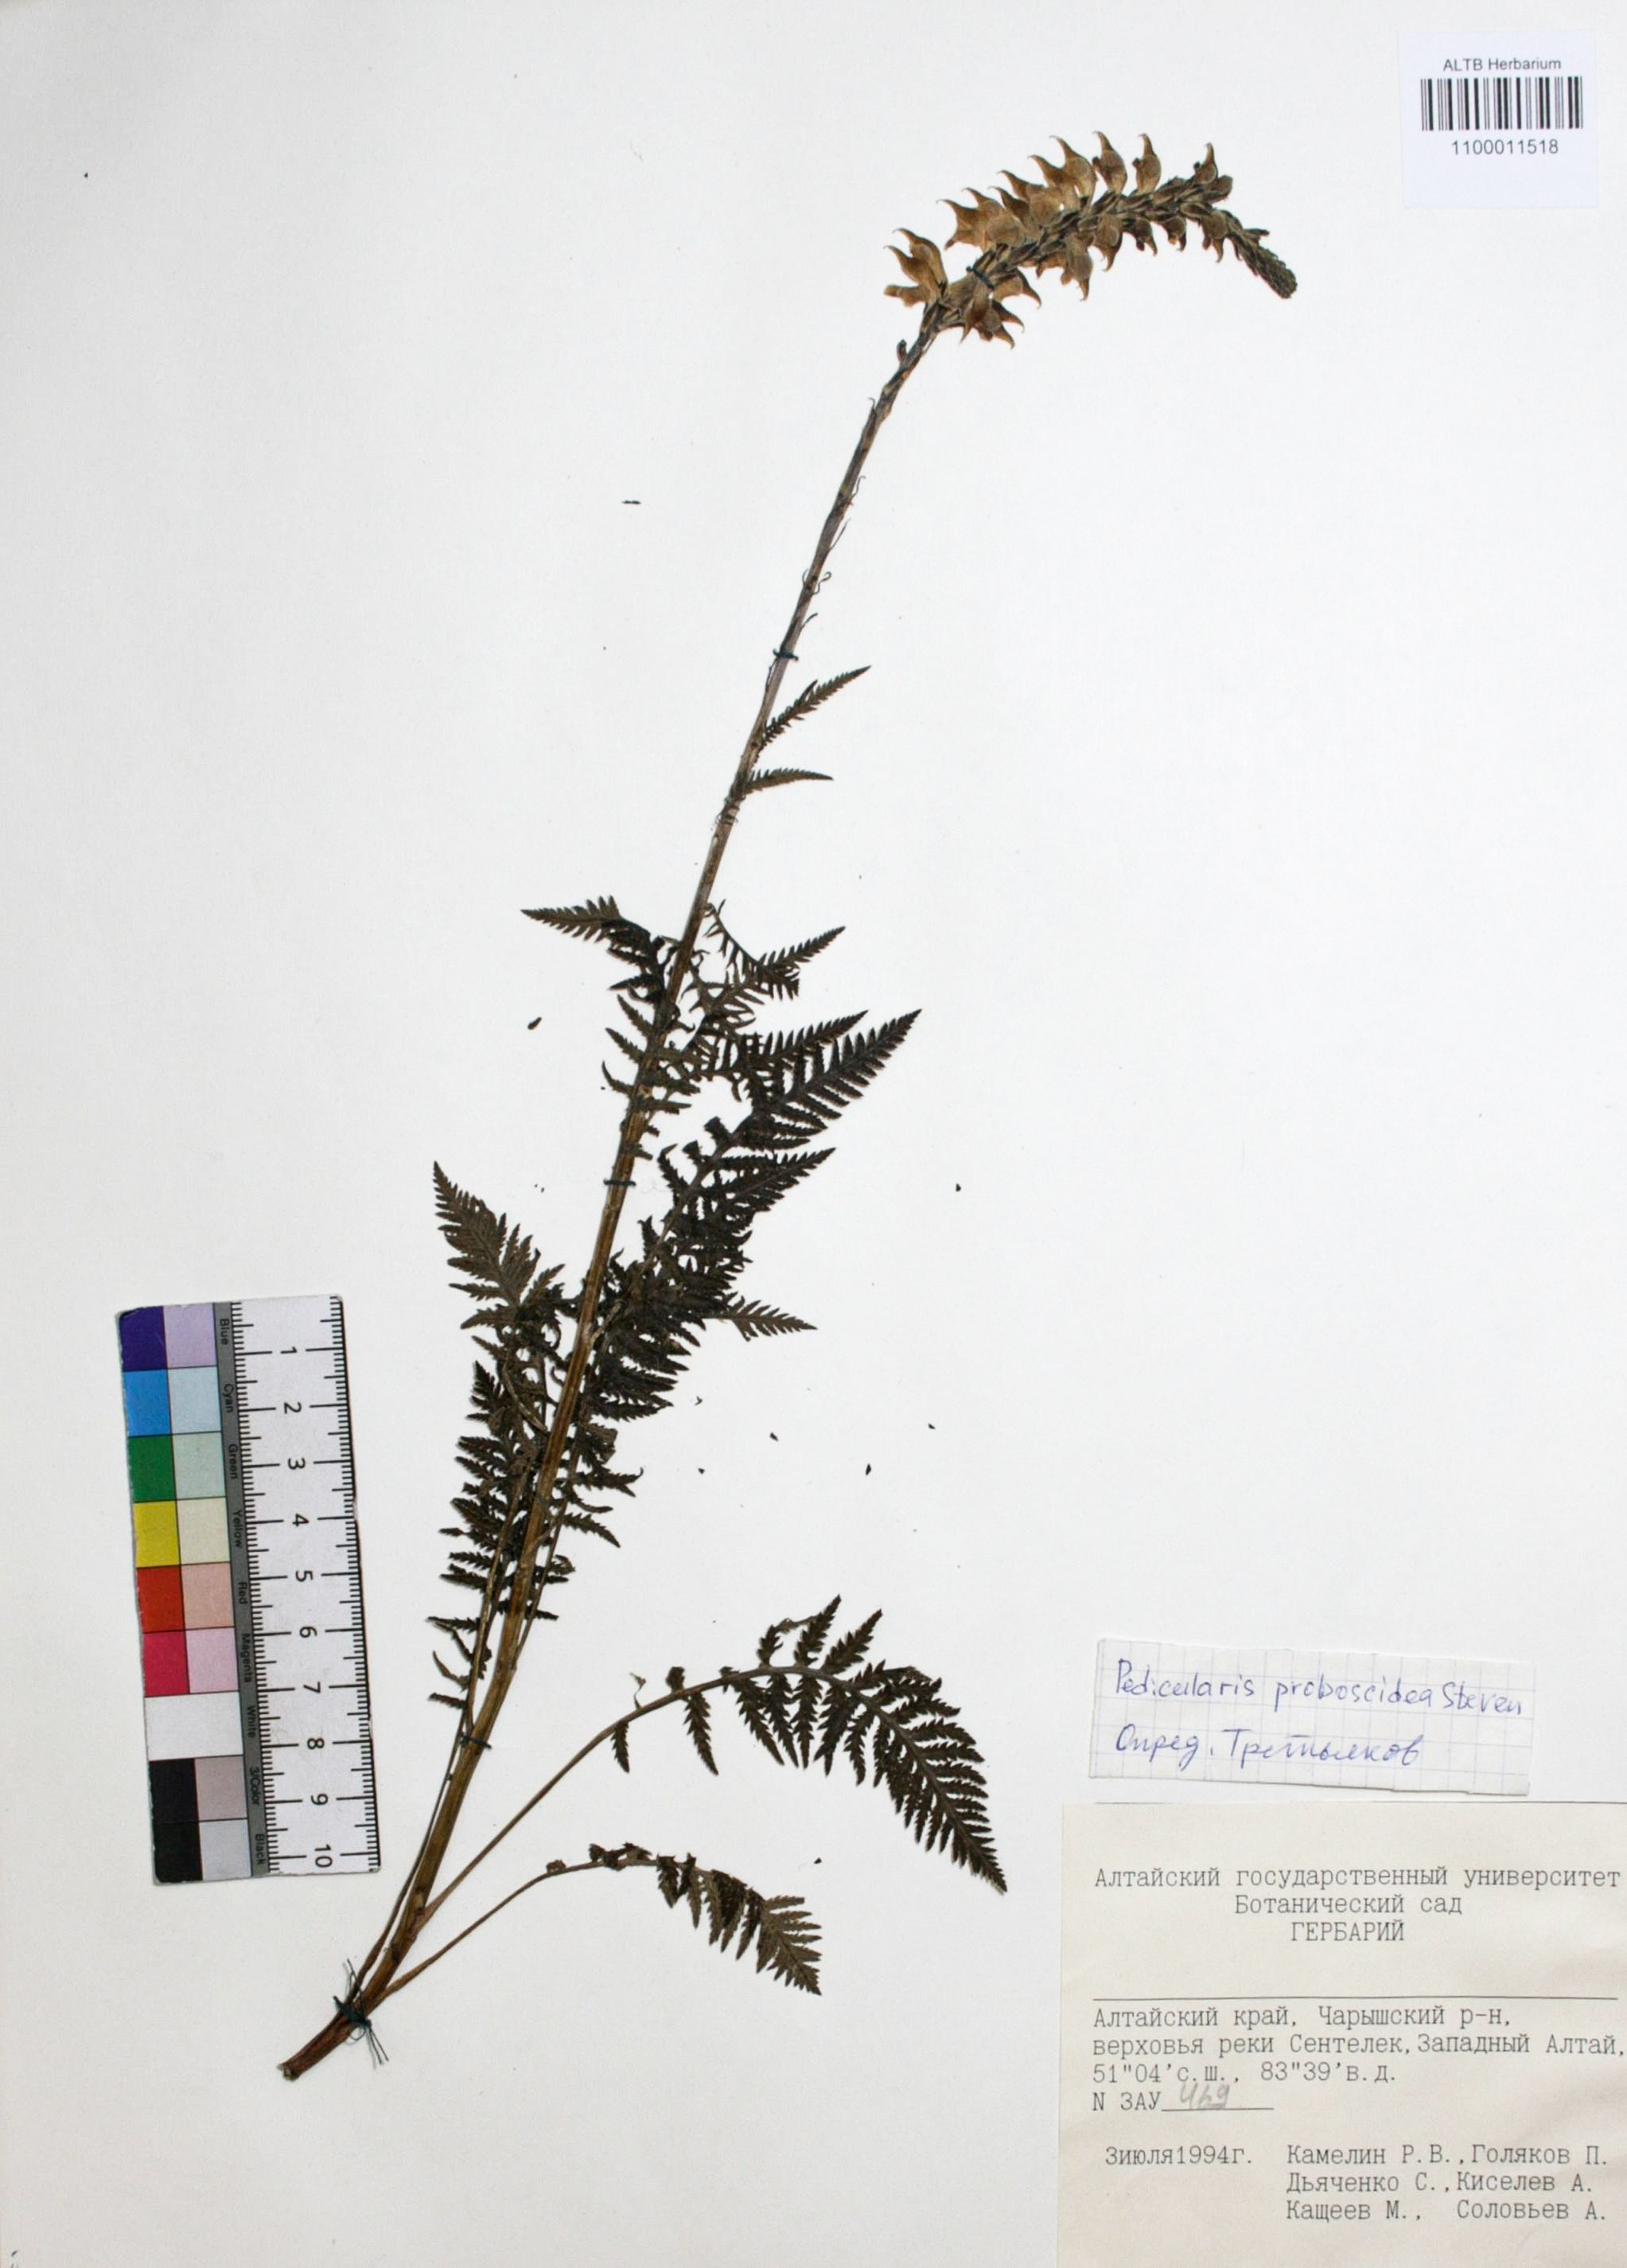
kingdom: Plantae
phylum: Tracheophyta
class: Magnoliopsida
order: Lamiales
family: Orobanchaceae
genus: Pedicularis
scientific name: Pedicularis proboscidea
